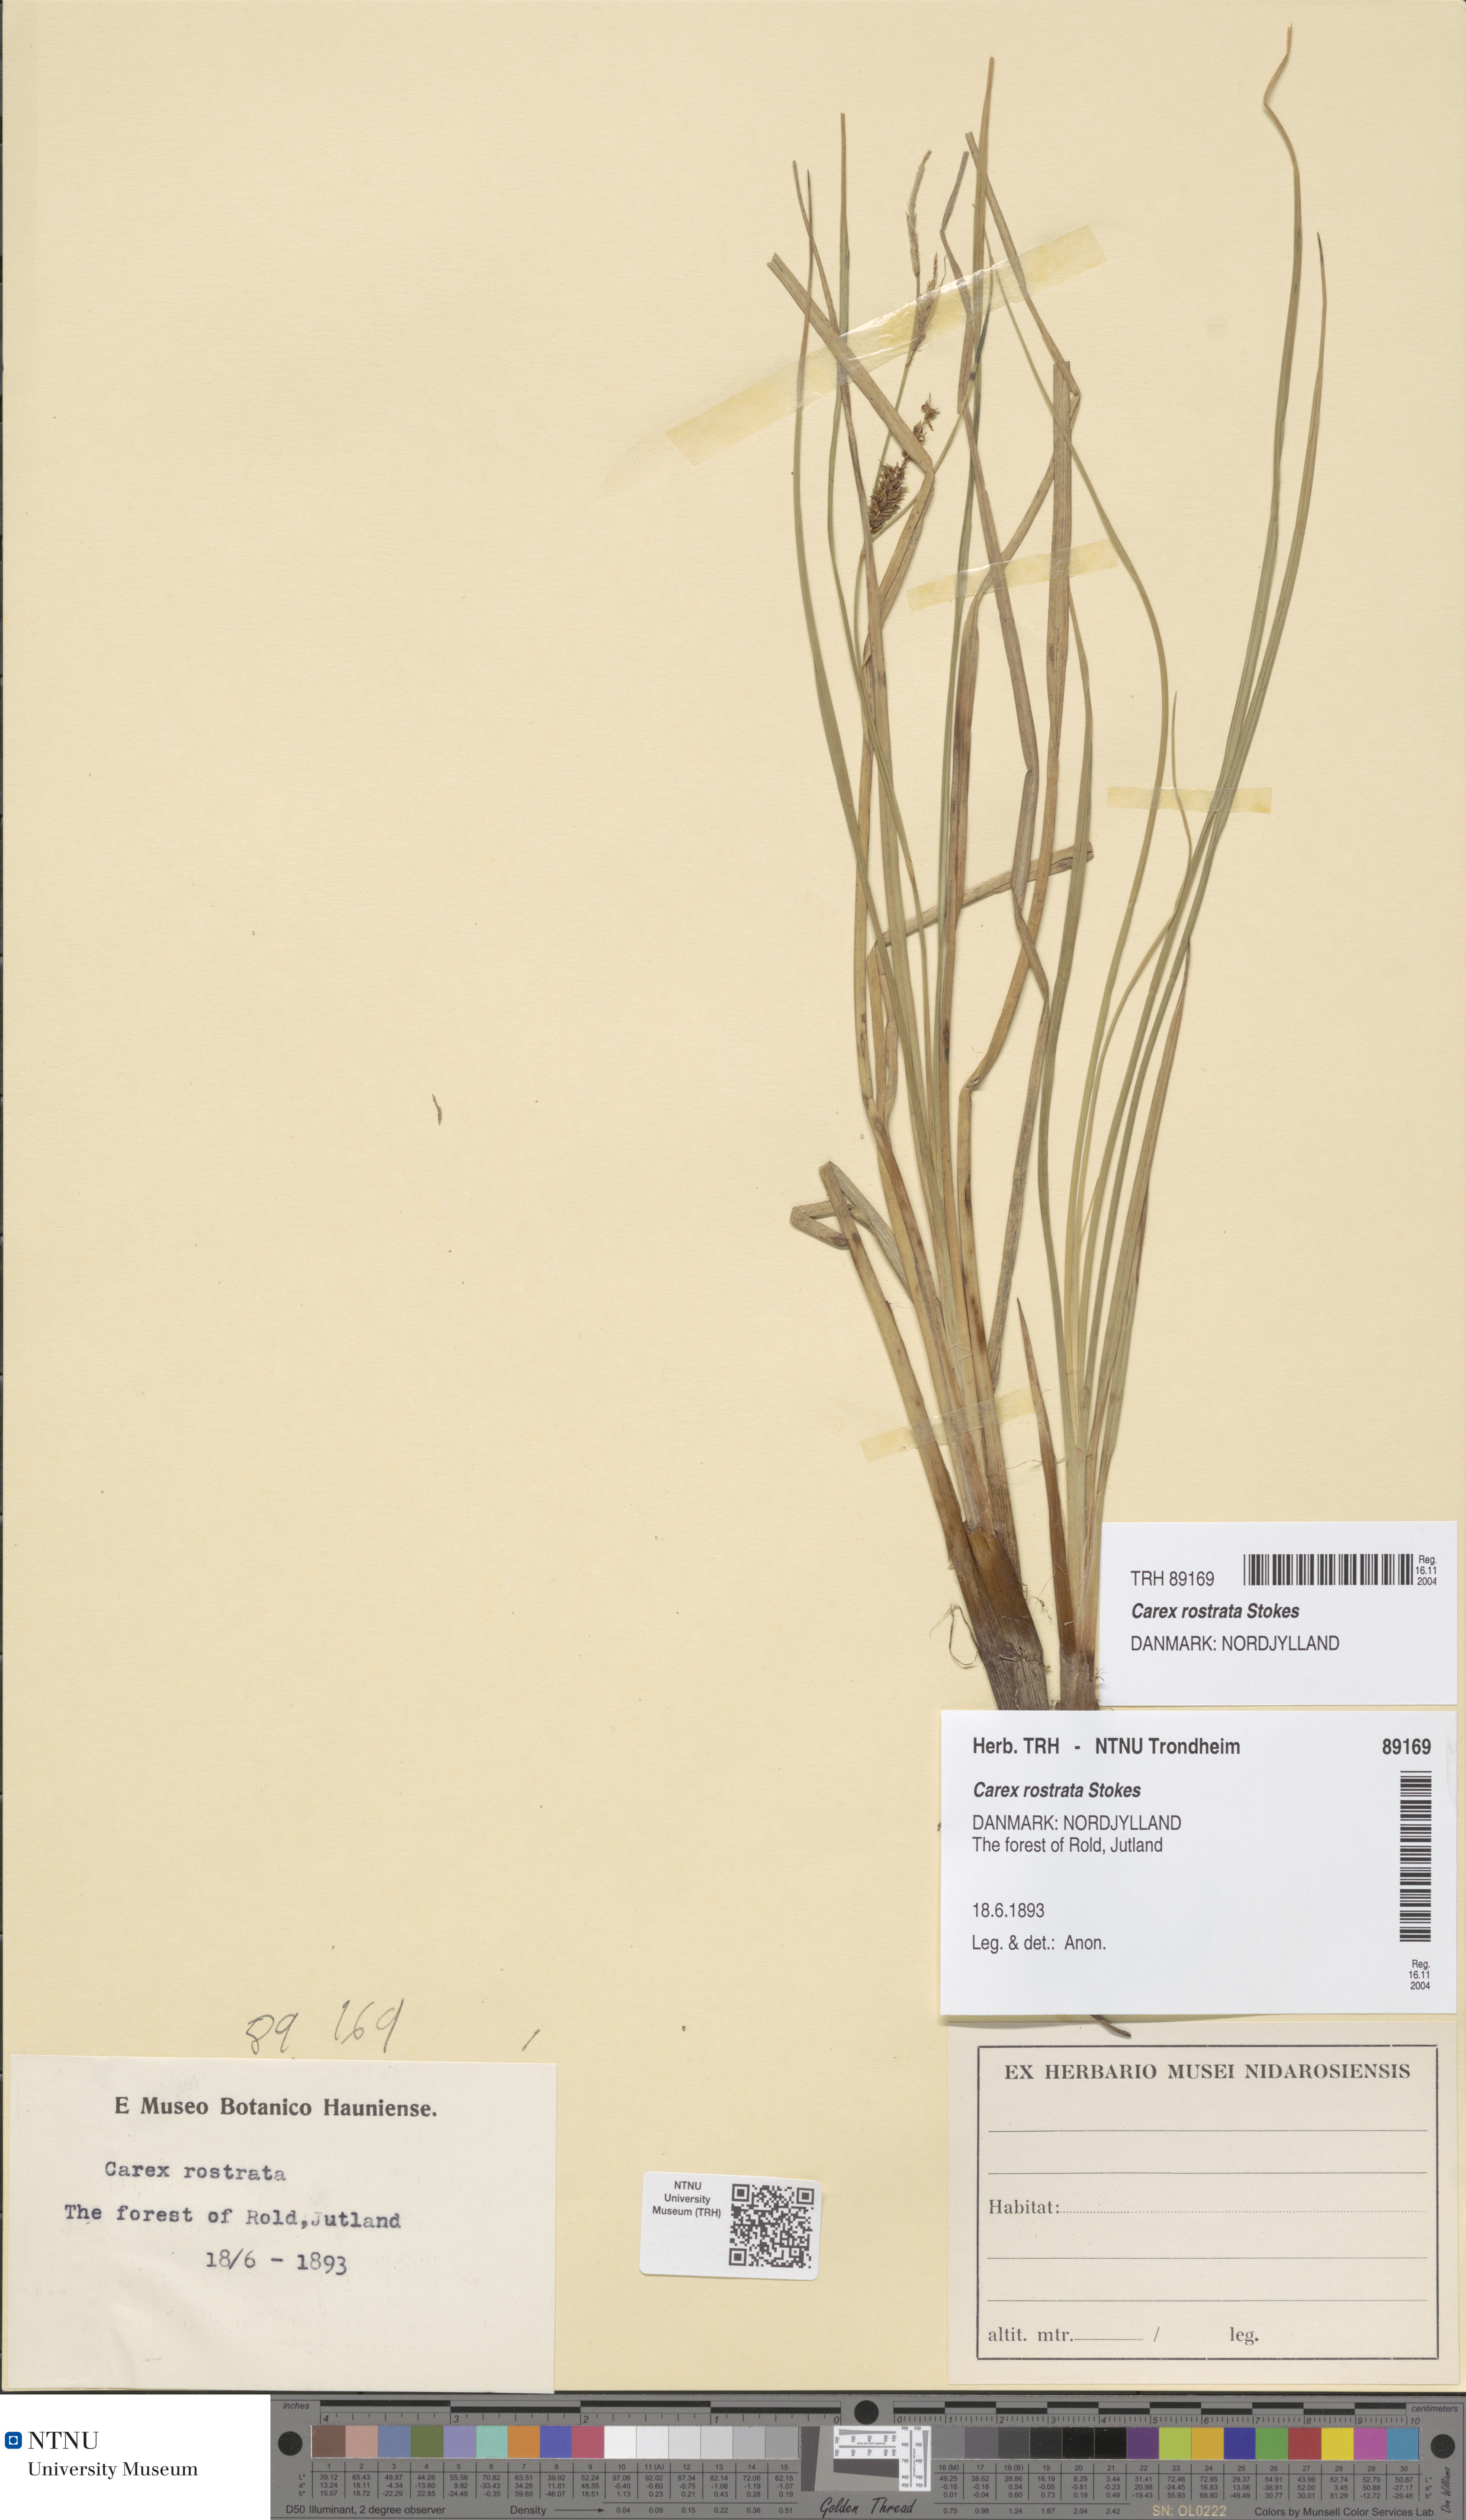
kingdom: Plantae
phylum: Tracheophyta
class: Liliopsida
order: Poales
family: Cyperaceae
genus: Carex
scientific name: Carex rostrata
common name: Bottle sedge
